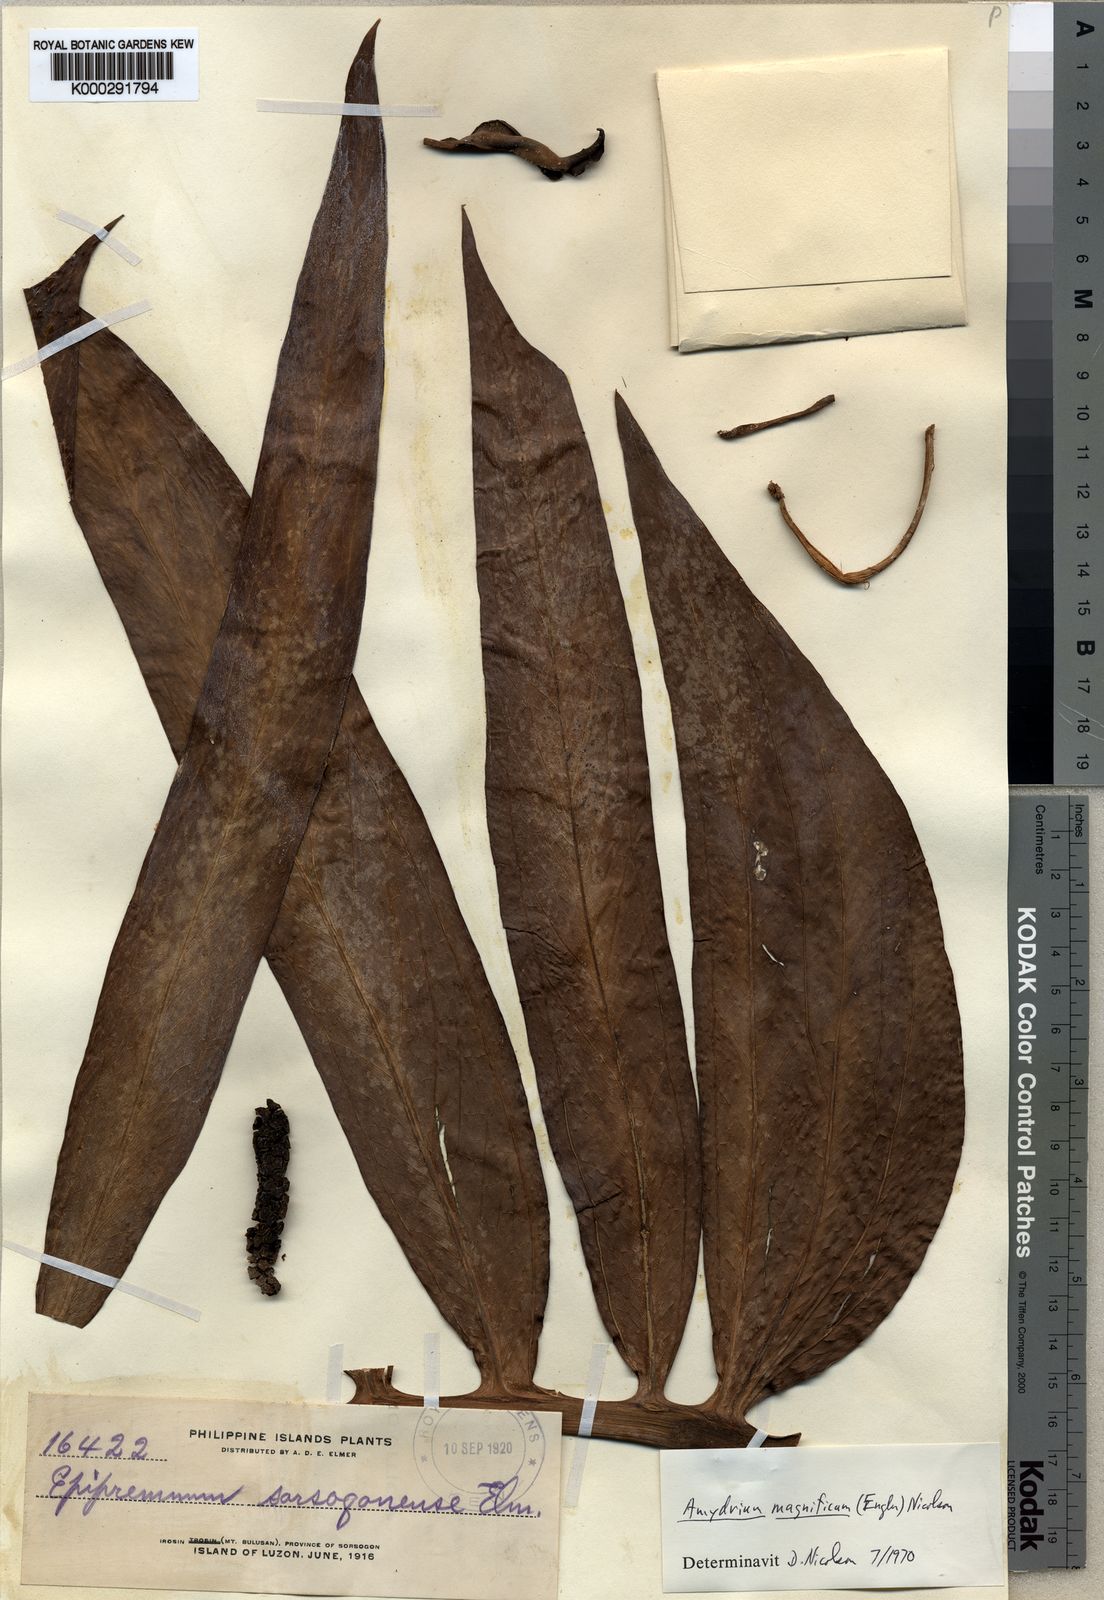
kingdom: Plantae
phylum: Tracheophyta
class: Liliopsida
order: Alismatales
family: Araceae
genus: Amydrium
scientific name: Amydrium zippelianum
